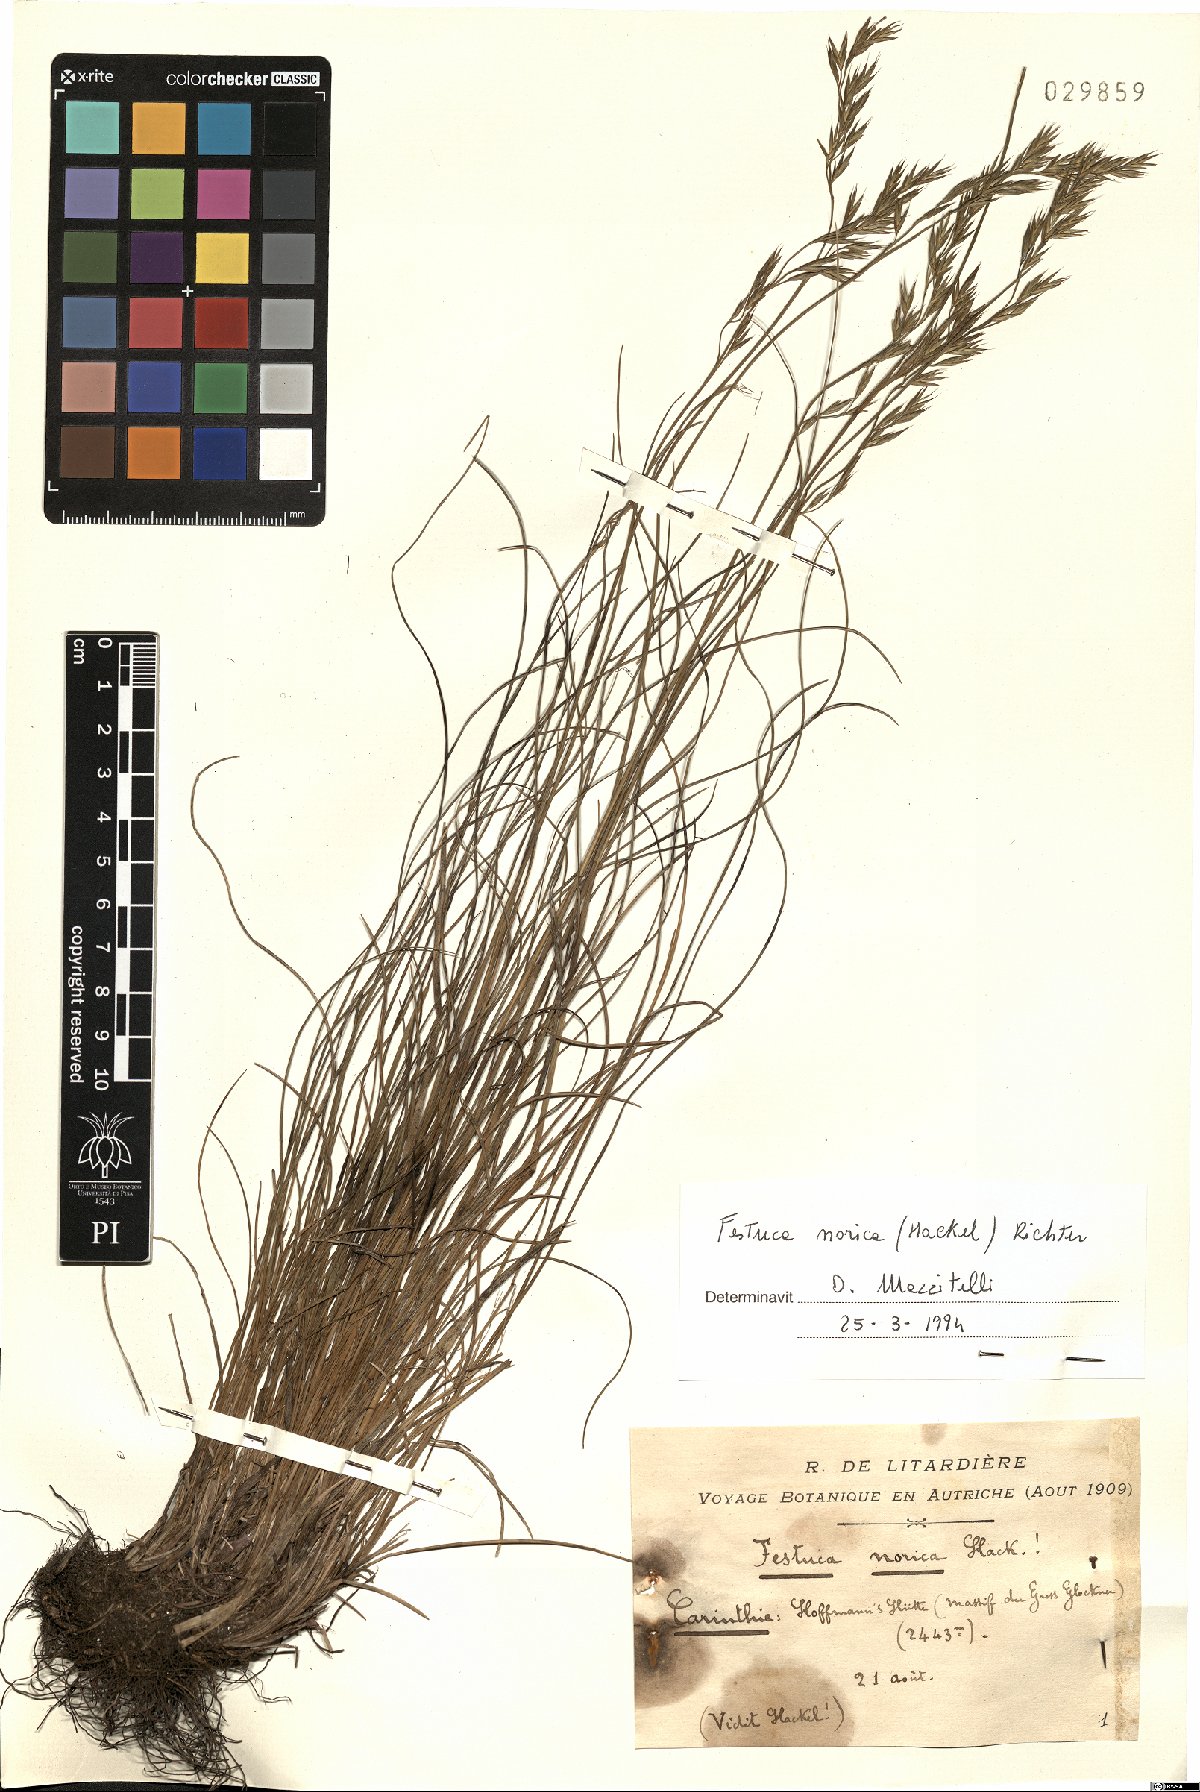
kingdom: Plantae
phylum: Tracheophyta
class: Liliopsida
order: Poales
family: Poaceae
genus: Festuca
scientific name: Festuca norica
